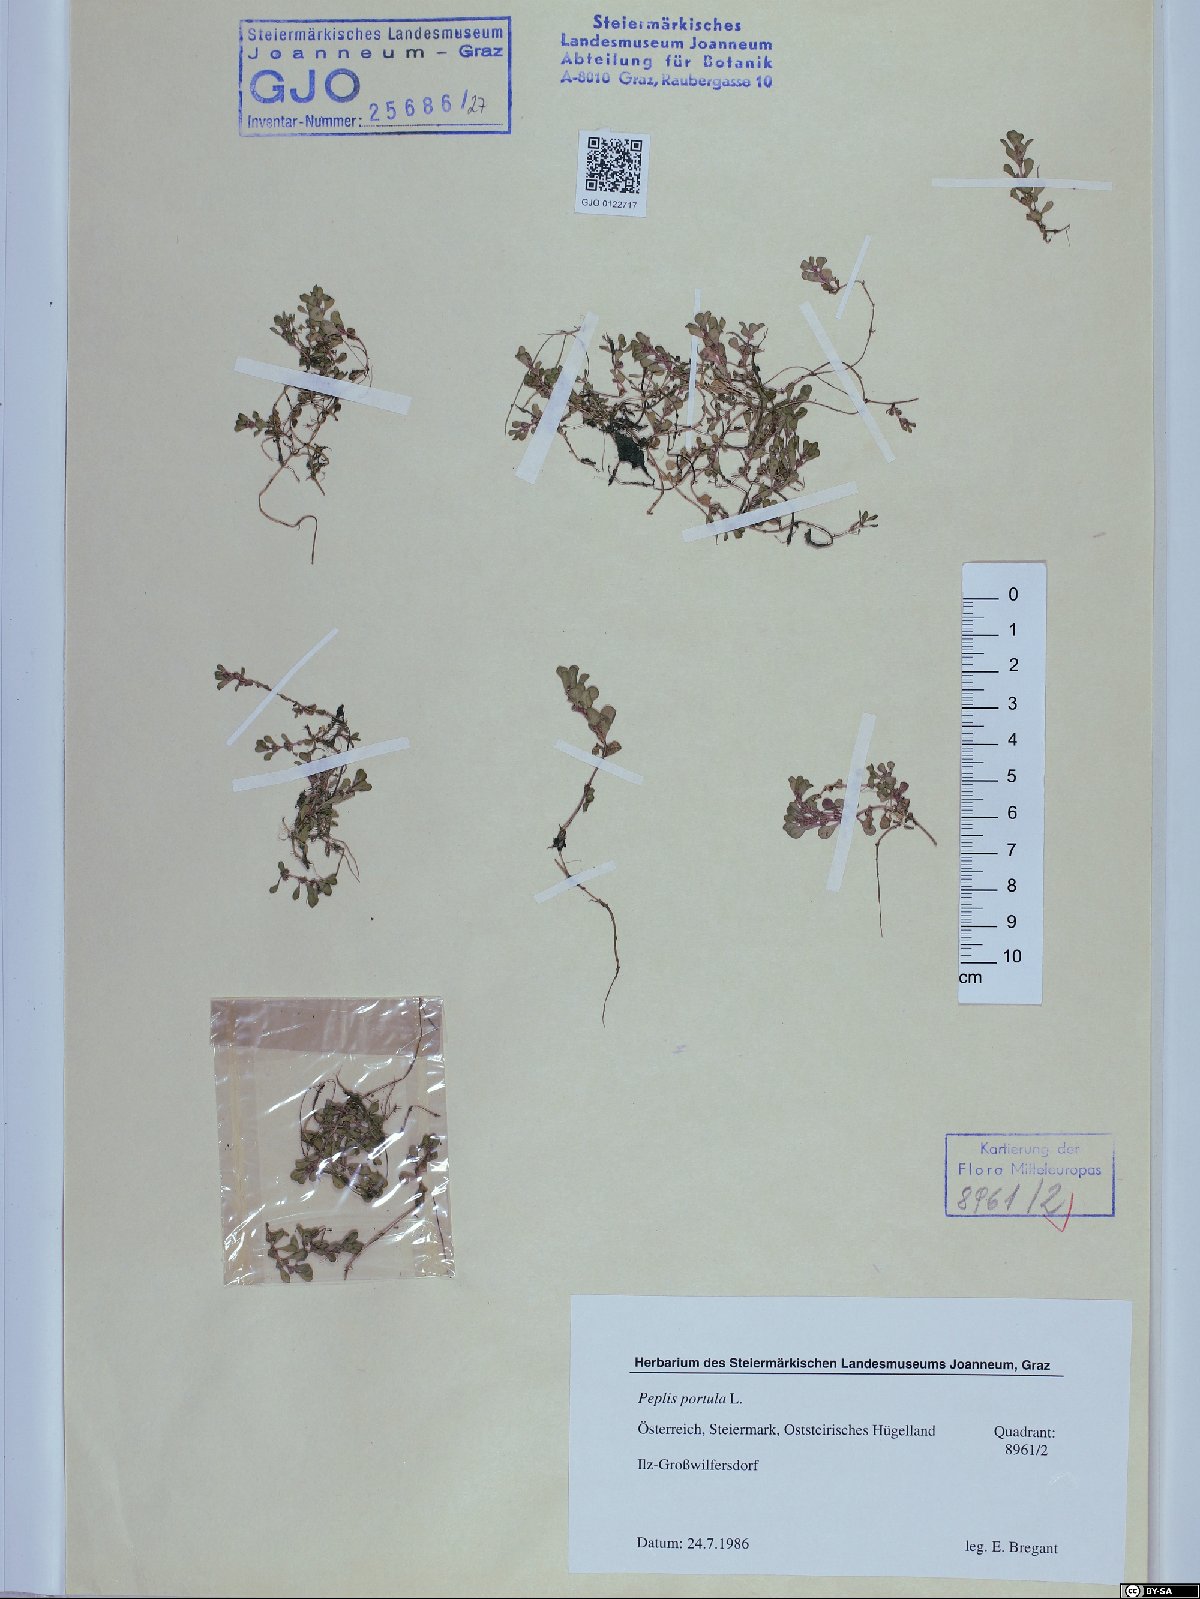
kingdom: Plantae
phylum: Tracheophyta
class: Magnoliopsida
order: Myrtales
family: Lythraceae
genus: Lythrum
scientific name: Lythrum portula
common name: Water purslane
